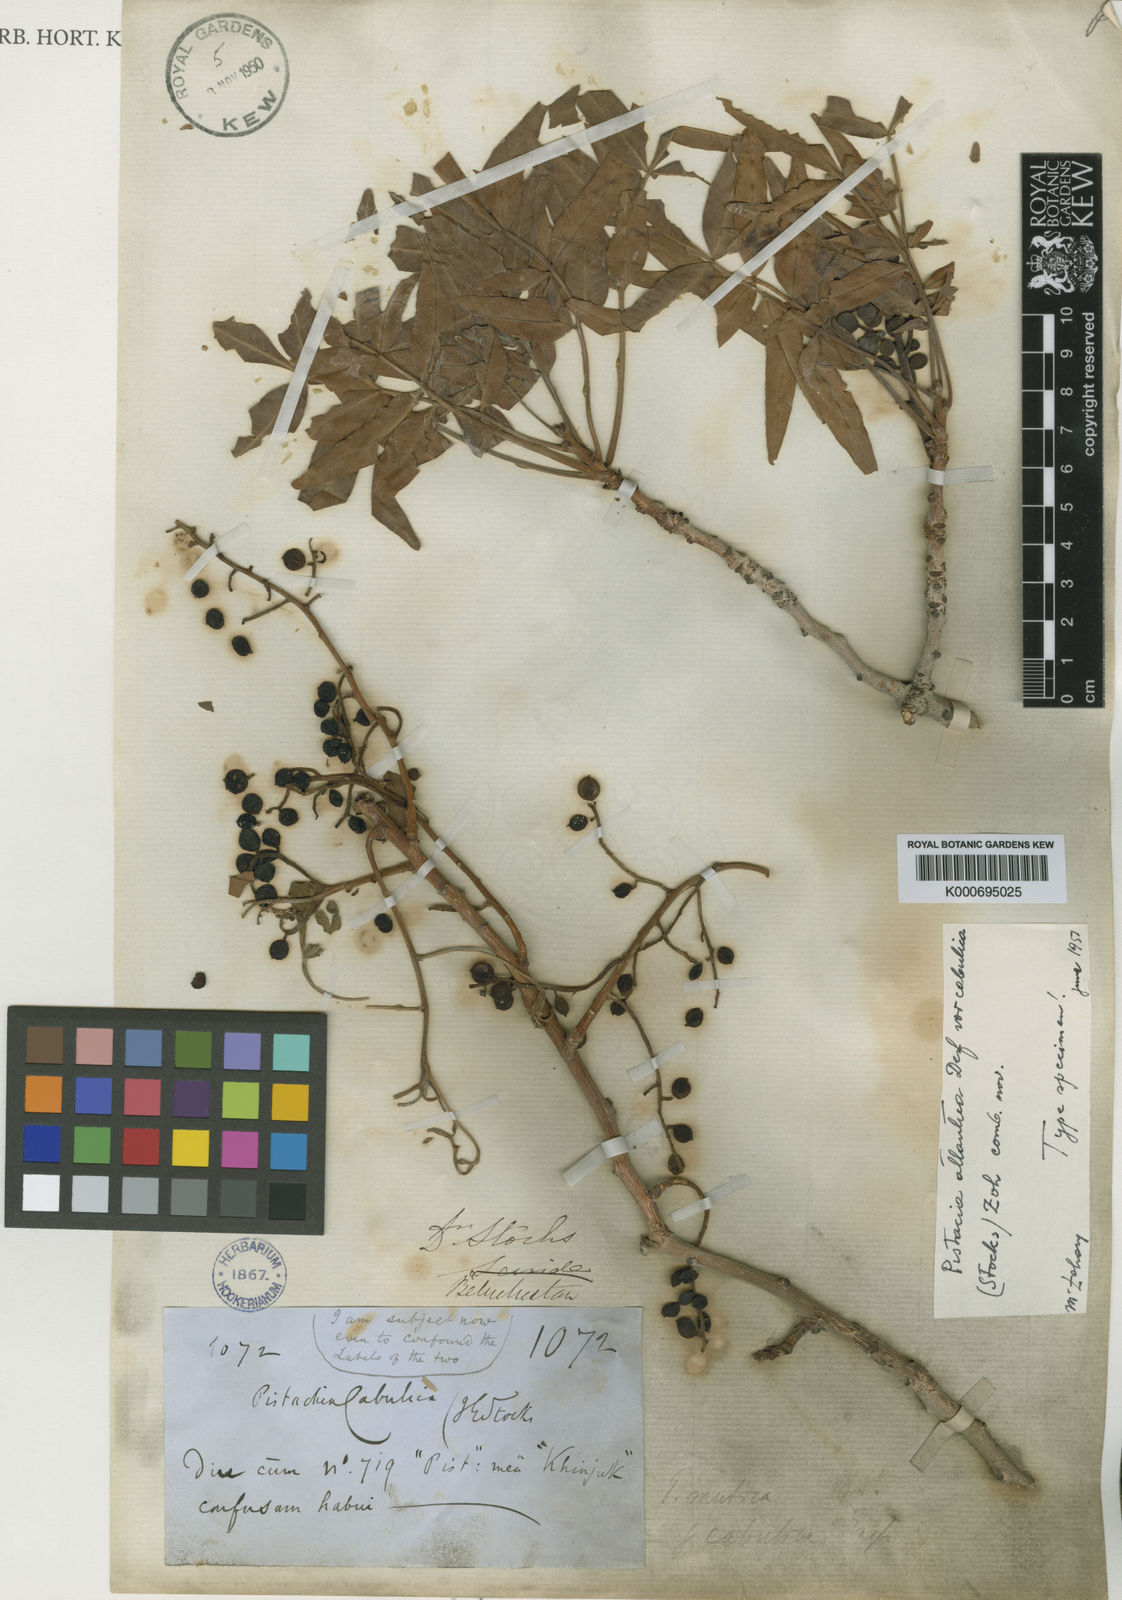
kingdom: Plantae
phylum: Tracheophyta
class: Magnoliopsida
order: Sapindales
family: Anacardiaceae
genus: Pistacia
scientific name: Pistacia atlantica
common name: Mt. atlas mastic tree
